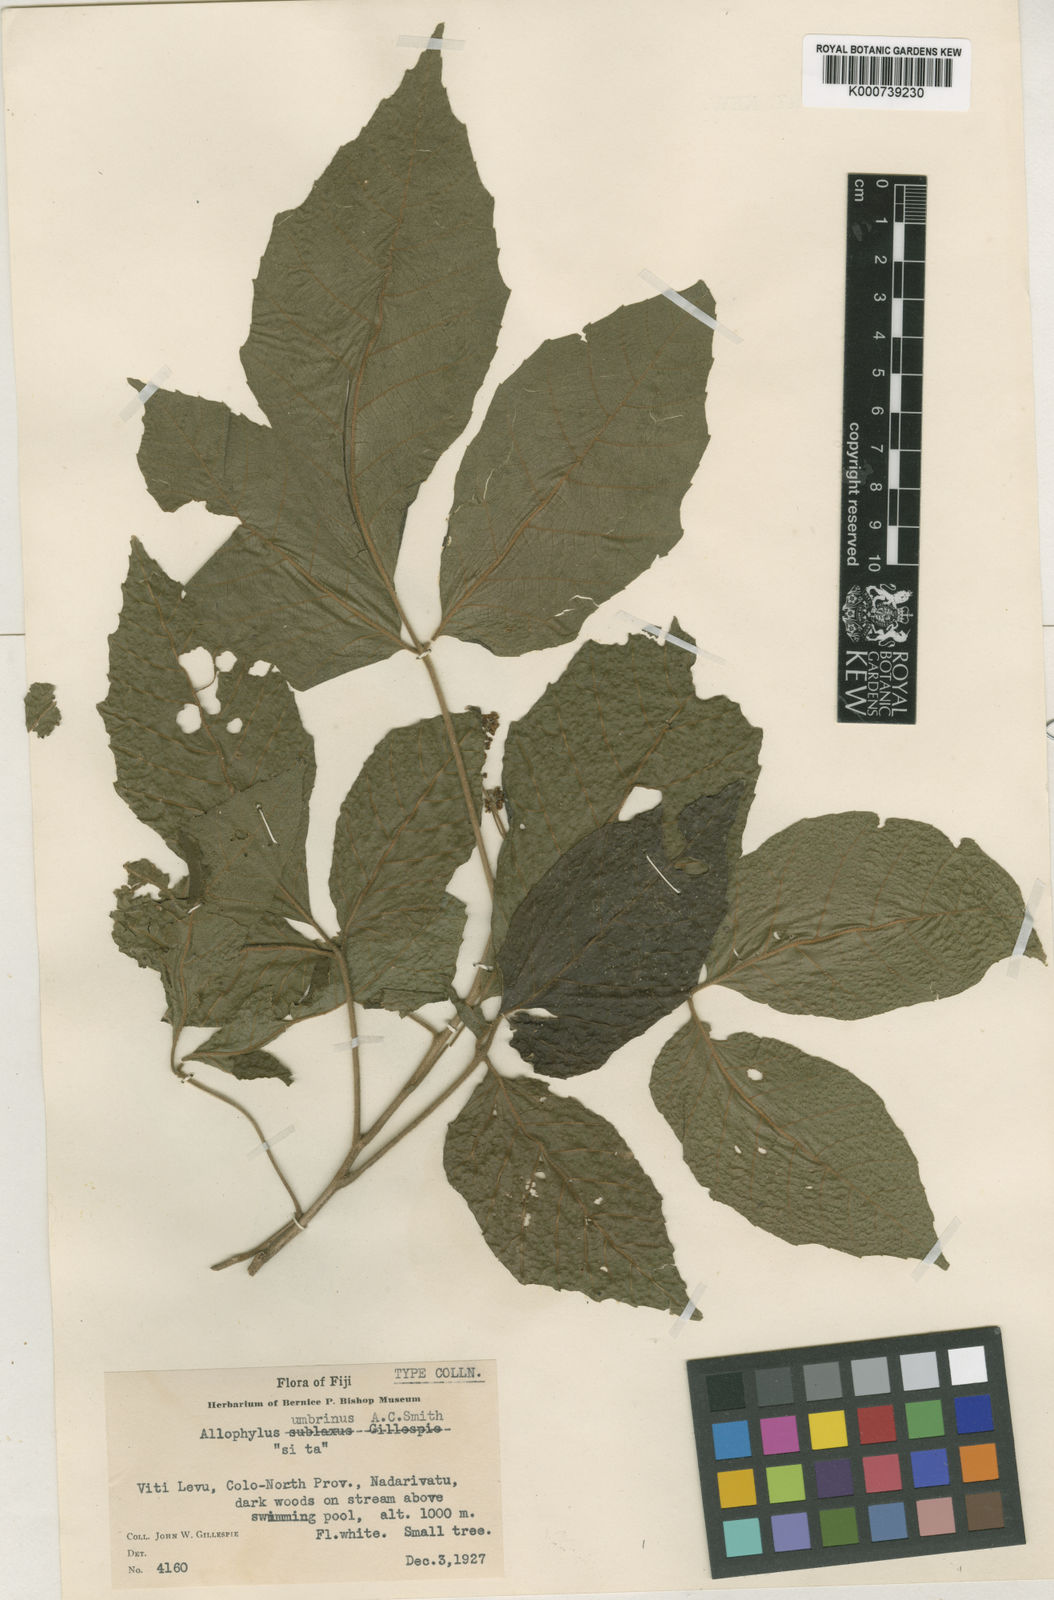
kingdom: Plantae
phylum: Tracheophyta
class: Magnoliopsida
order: Sapindales
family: Sapindaceae
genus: Allophylus
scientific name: Allophylus umbrinus
